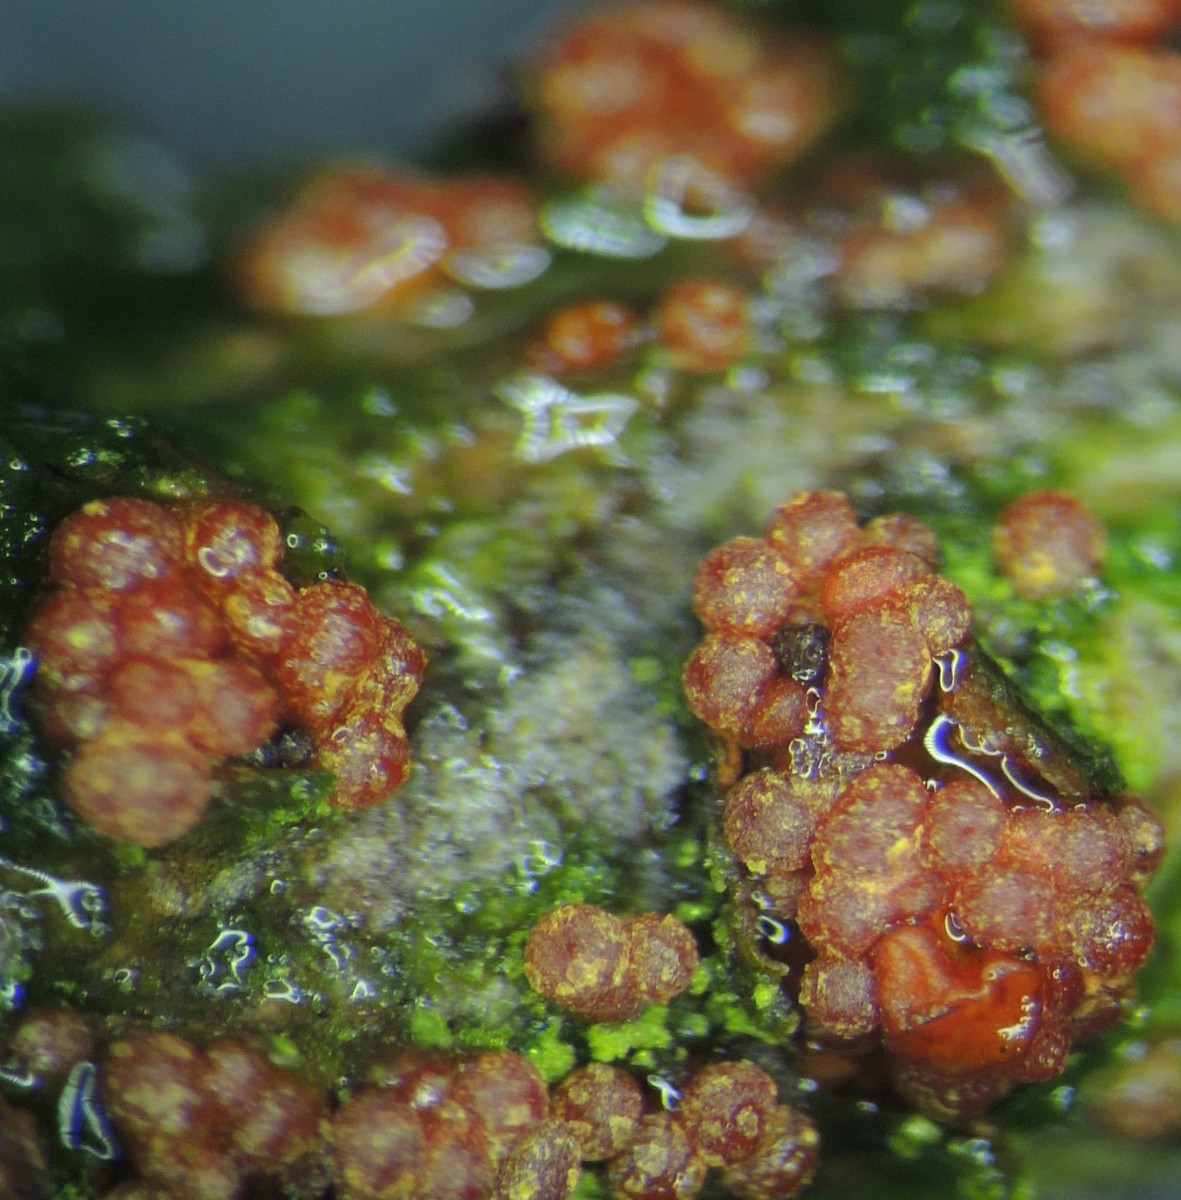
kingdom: Fungi
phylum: Ascomycota
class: Sordariomycetes
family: Thyridiaceae
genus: Thyronectria
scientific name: Thyronectria cucurbitula
